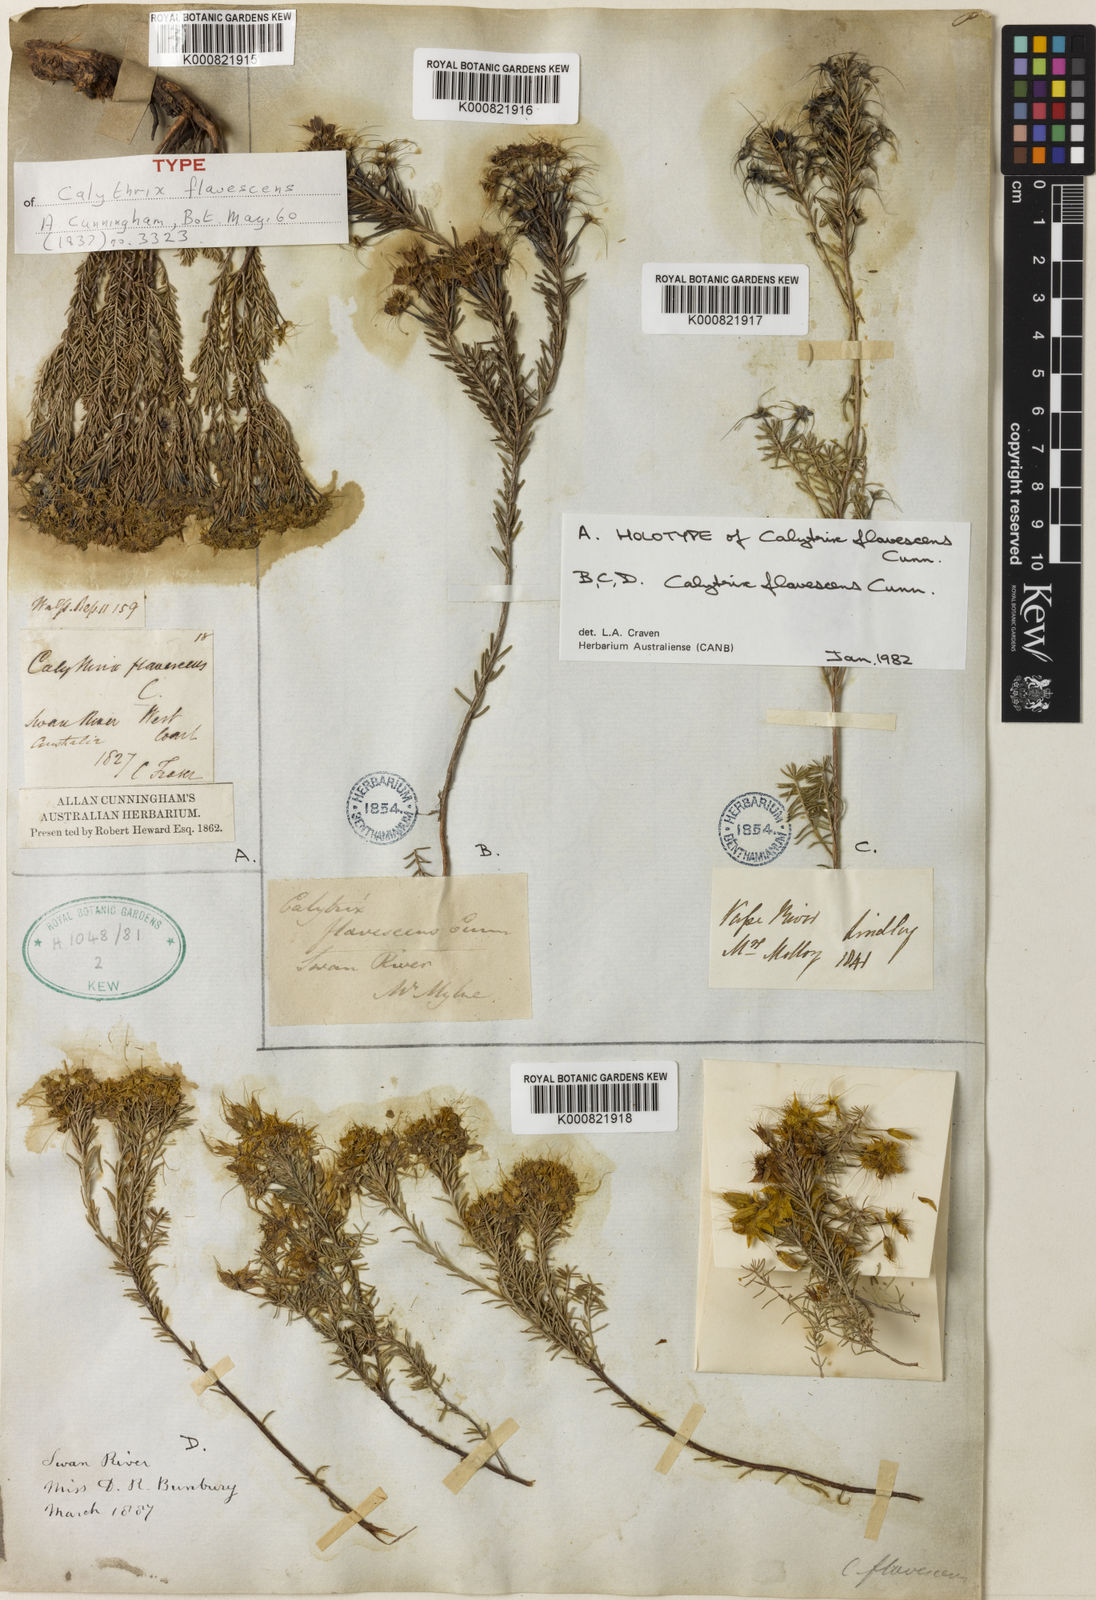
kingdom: Plantae
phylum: Tracheophyta
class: Magnoliopsida
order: Myrtales
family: Myrtaceae
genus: Calytrix
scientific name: Calytrix flavescens
